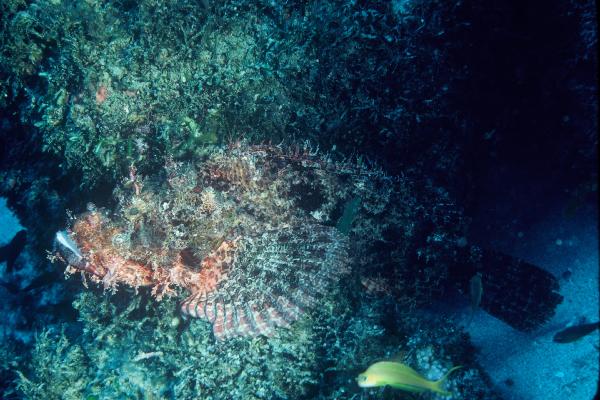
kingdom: Animalia
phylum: Chordata
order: Scorpaeniformes
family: Scorpaenidae
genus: Scorpaenopsis
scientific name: Scorpaenopsis
